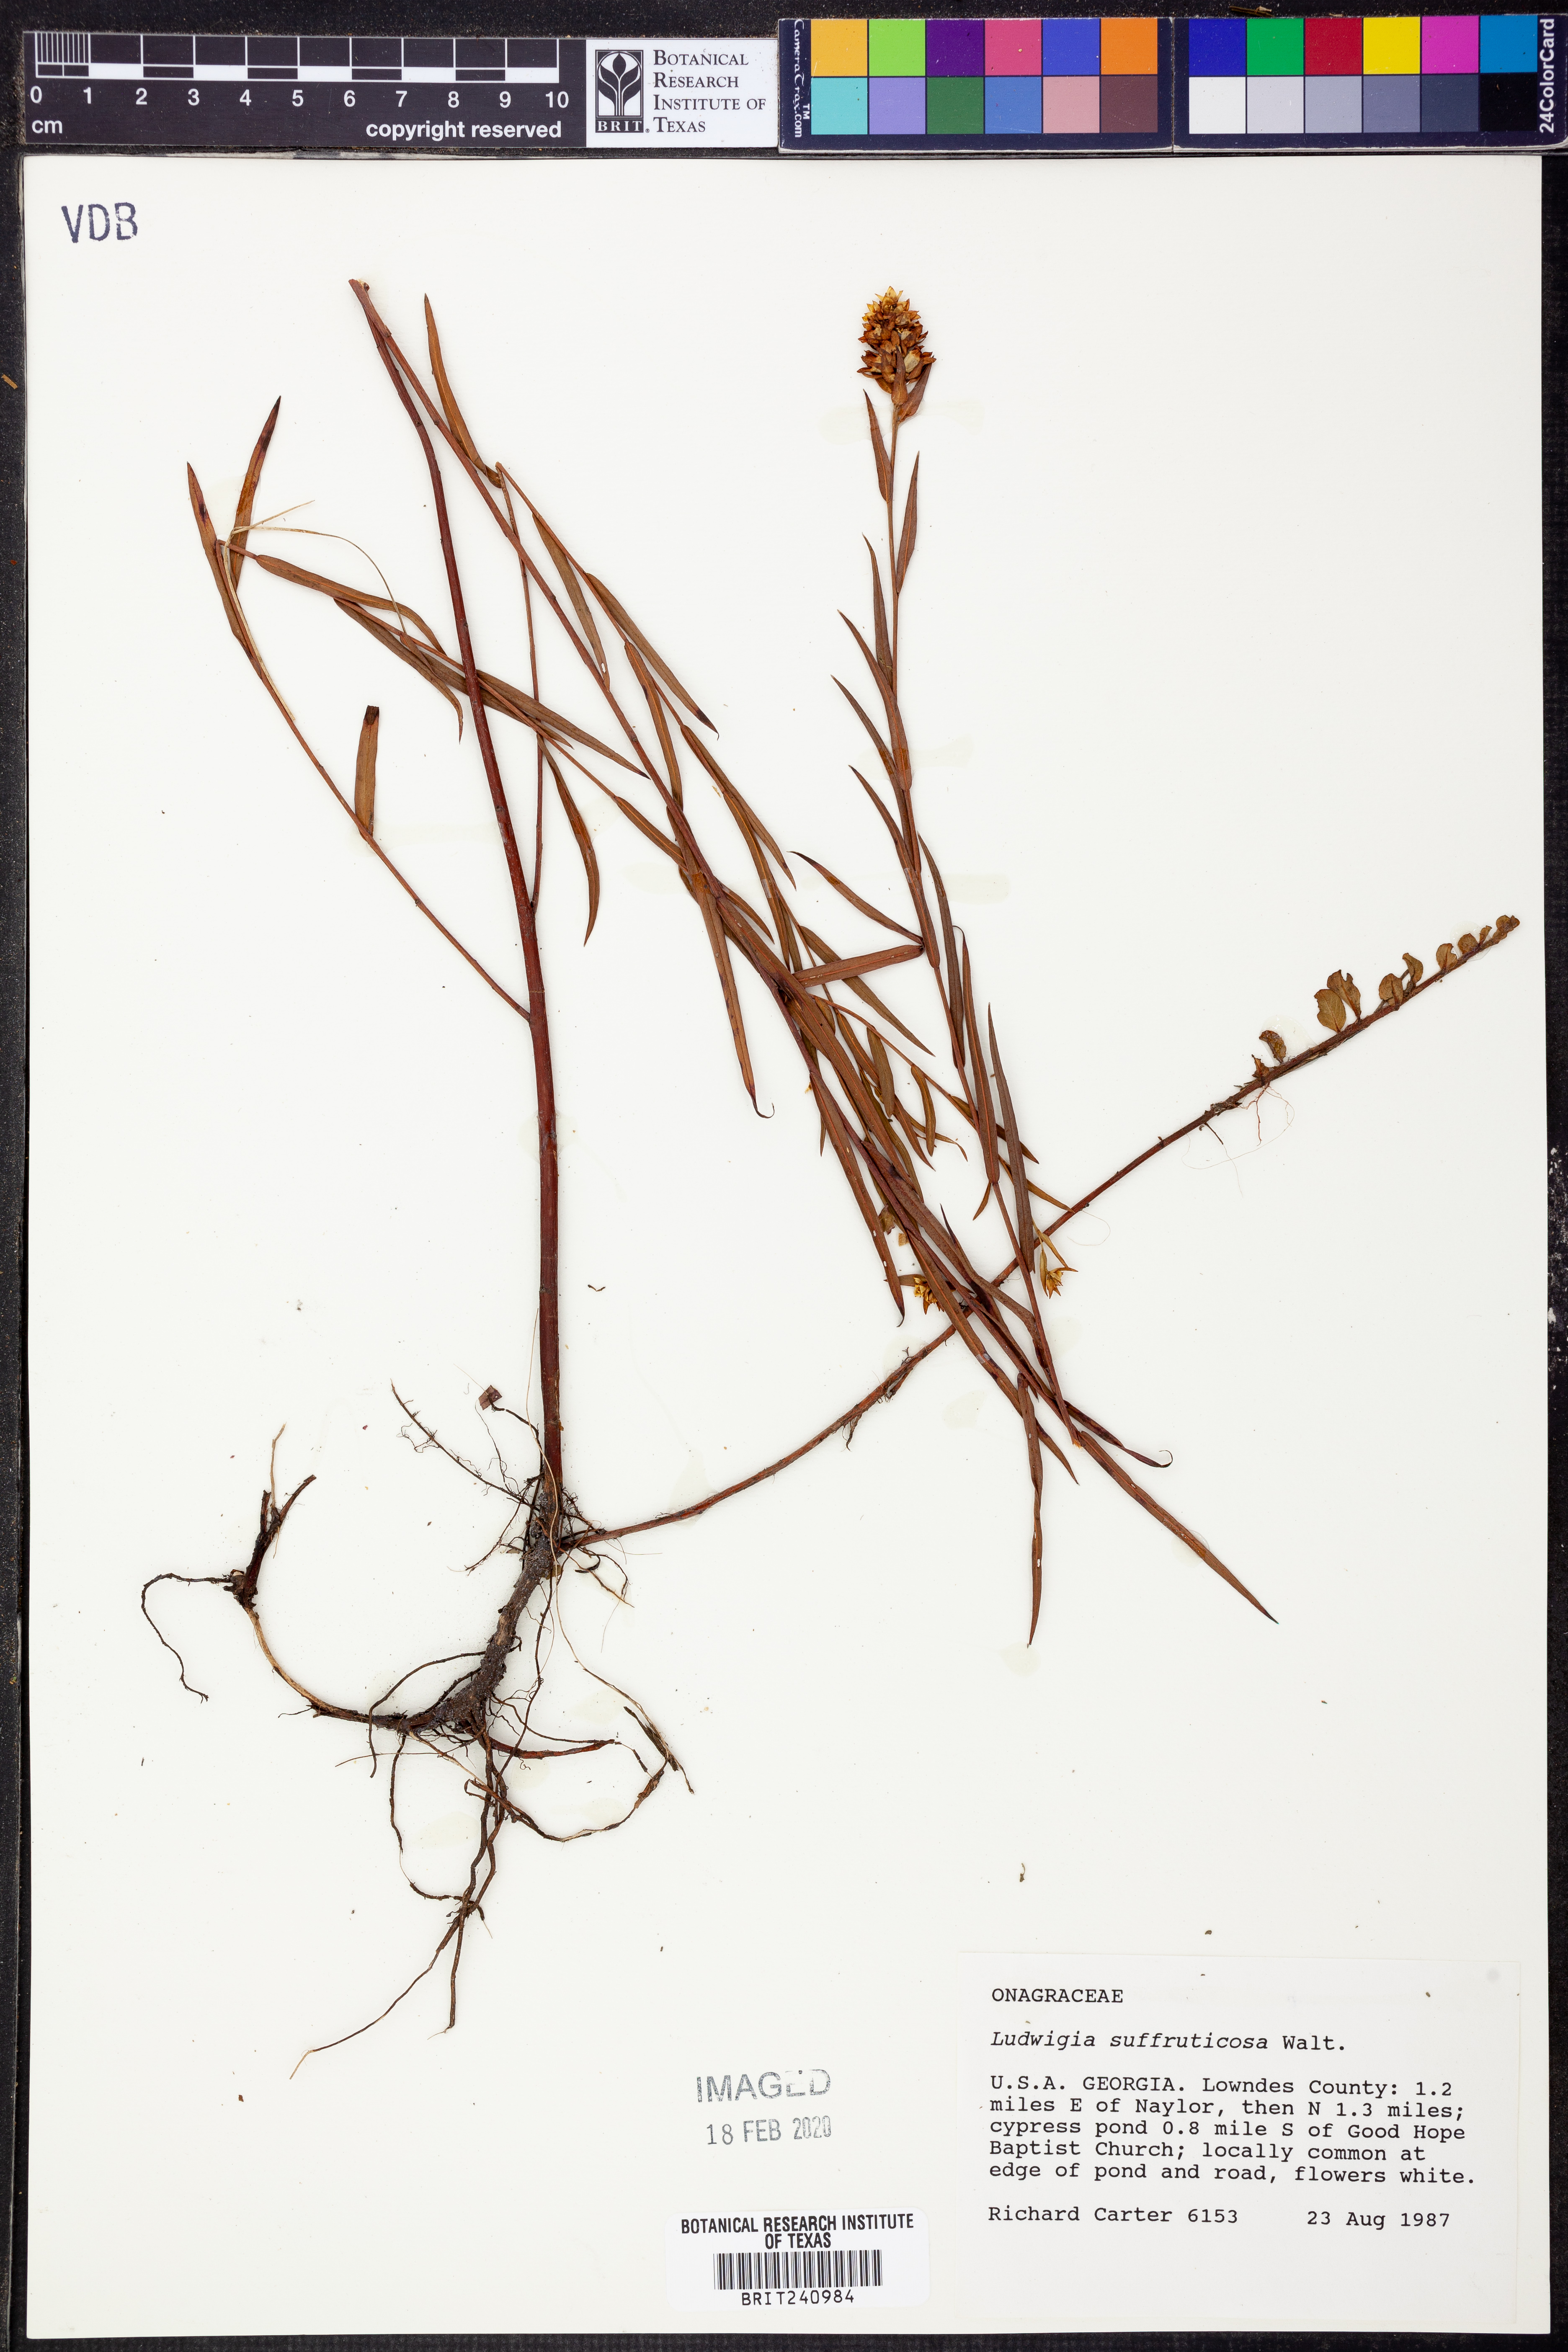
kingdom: Plantae
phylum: Tracheophyta
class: Magnoliopsida
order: Myrtales
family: Onagraceae
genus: Ludwigia
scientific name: Ludwigia suffruticosa
